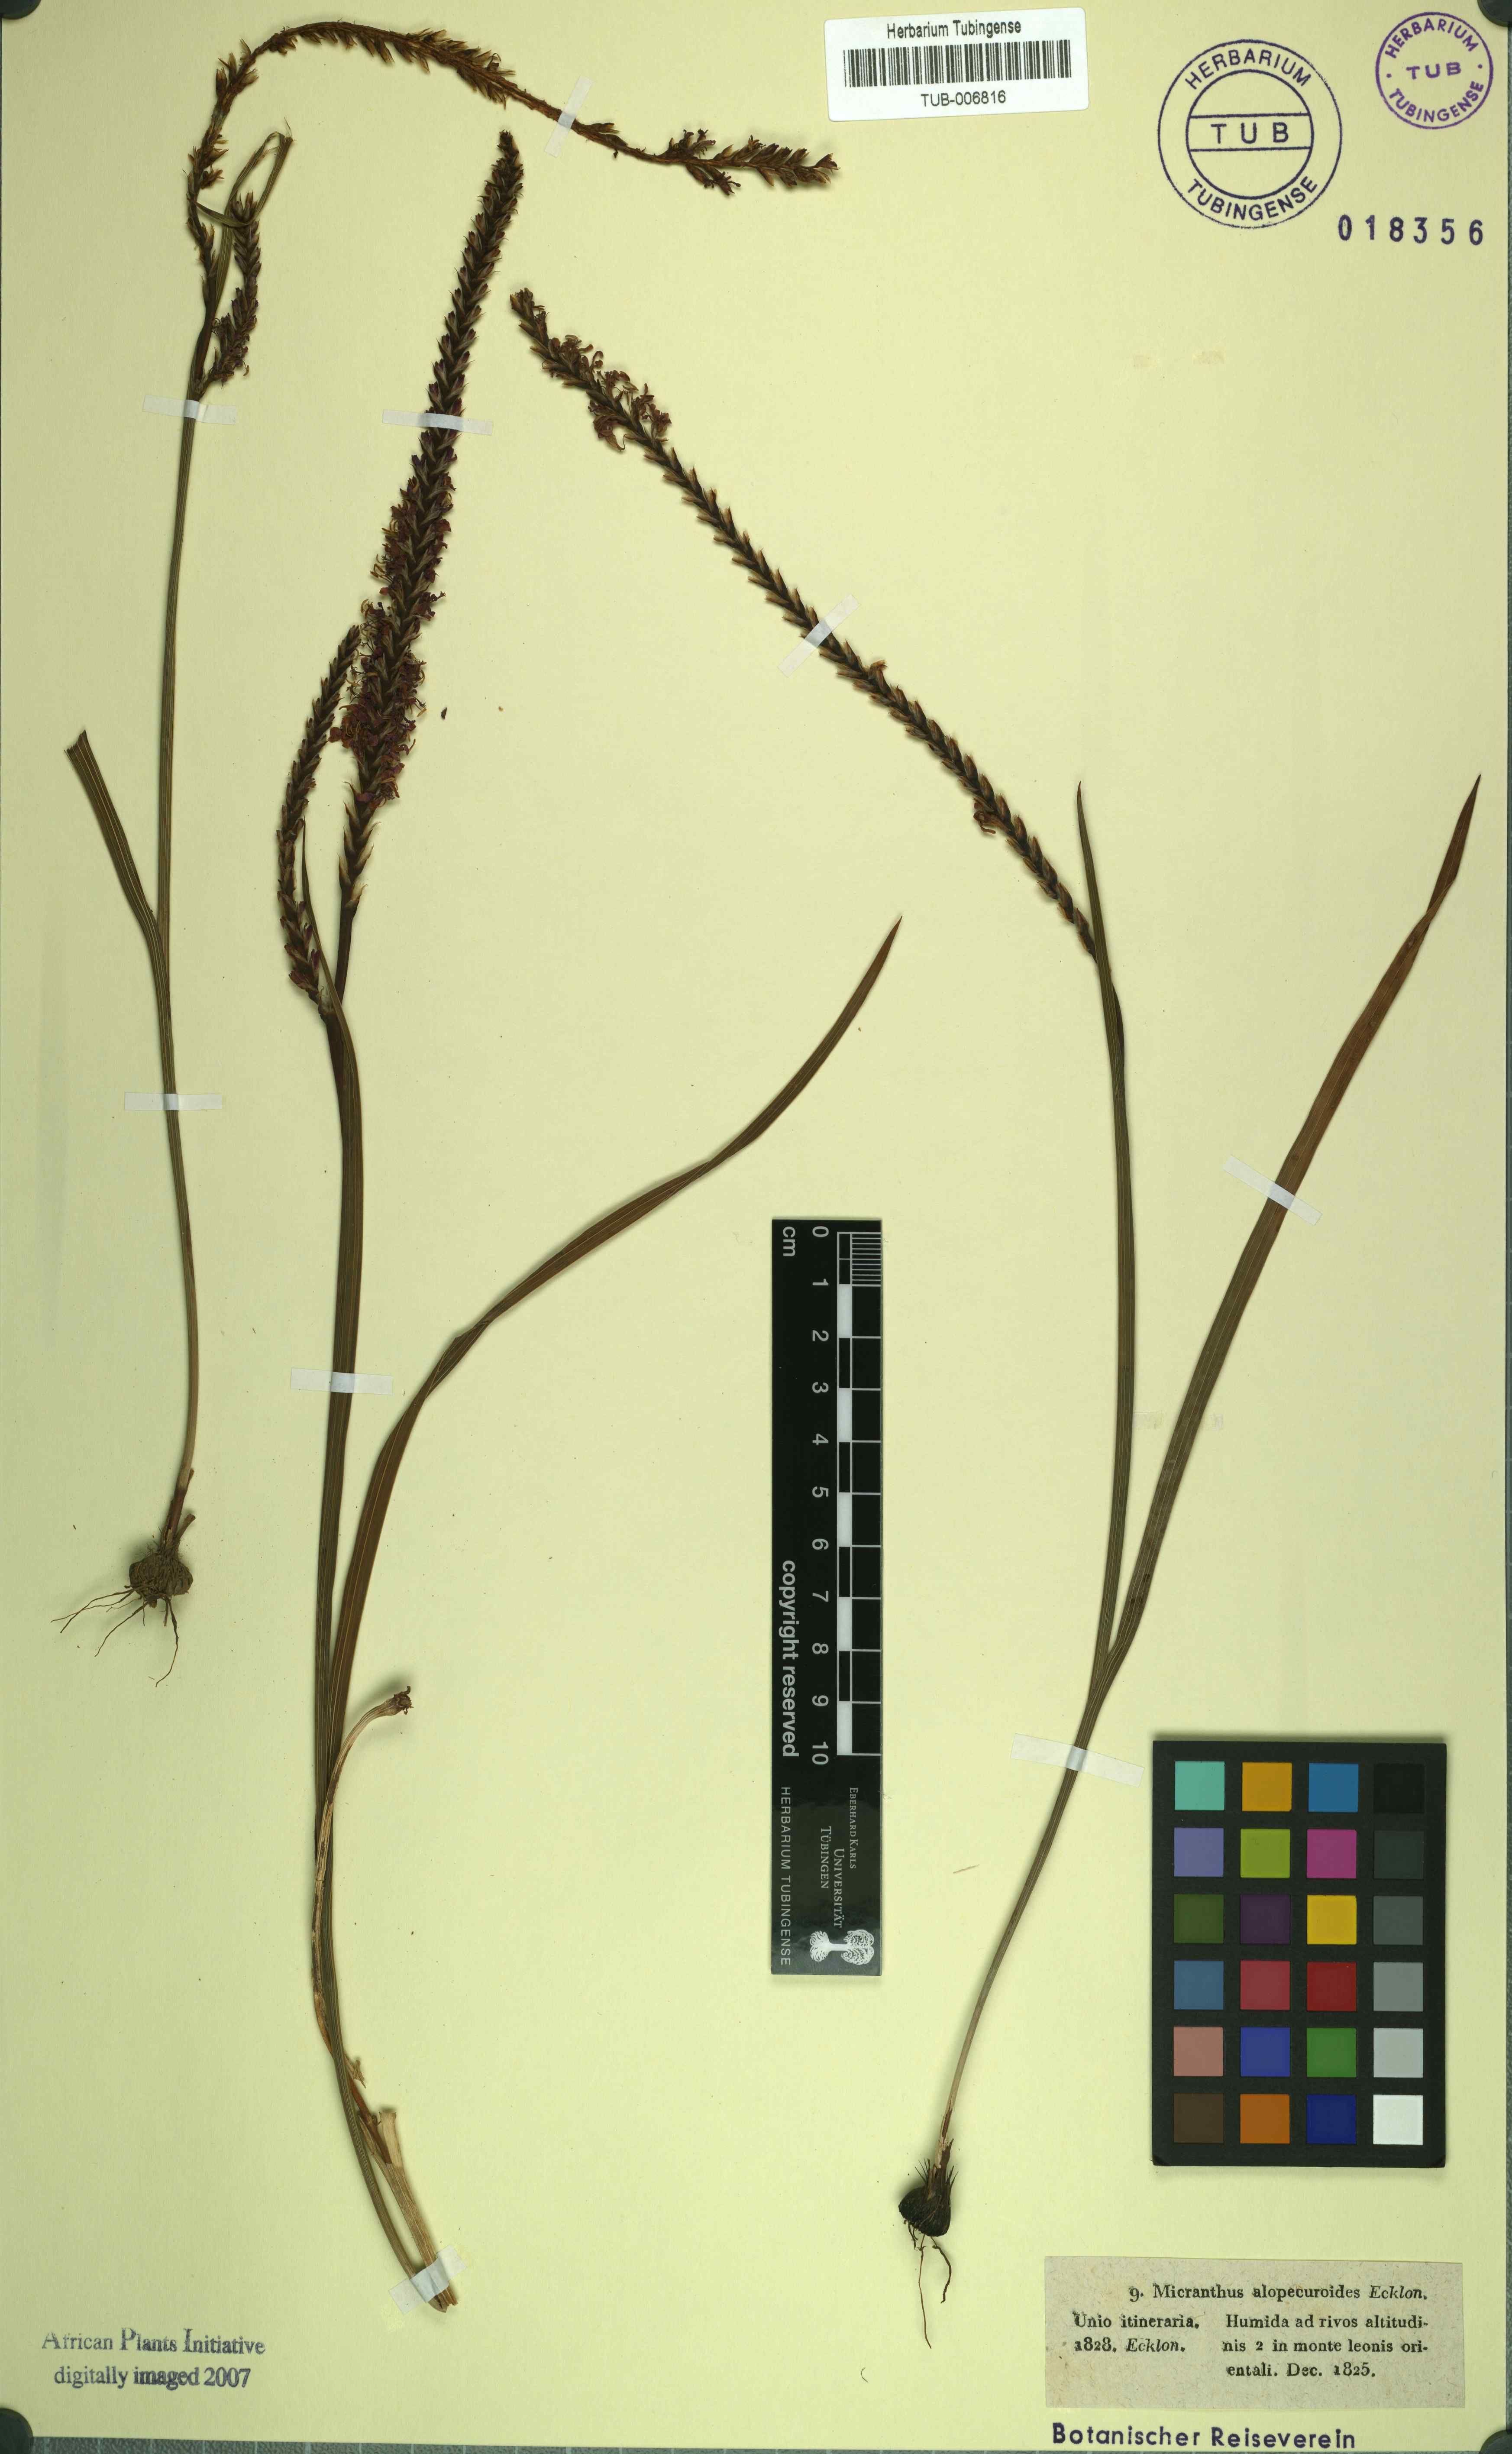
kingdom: Plantae
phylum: Tracheophyta
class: Liliopsida
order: Asparagales
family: Iridaceae
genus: Micranthus
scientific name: Micranthus alopecuroideus
